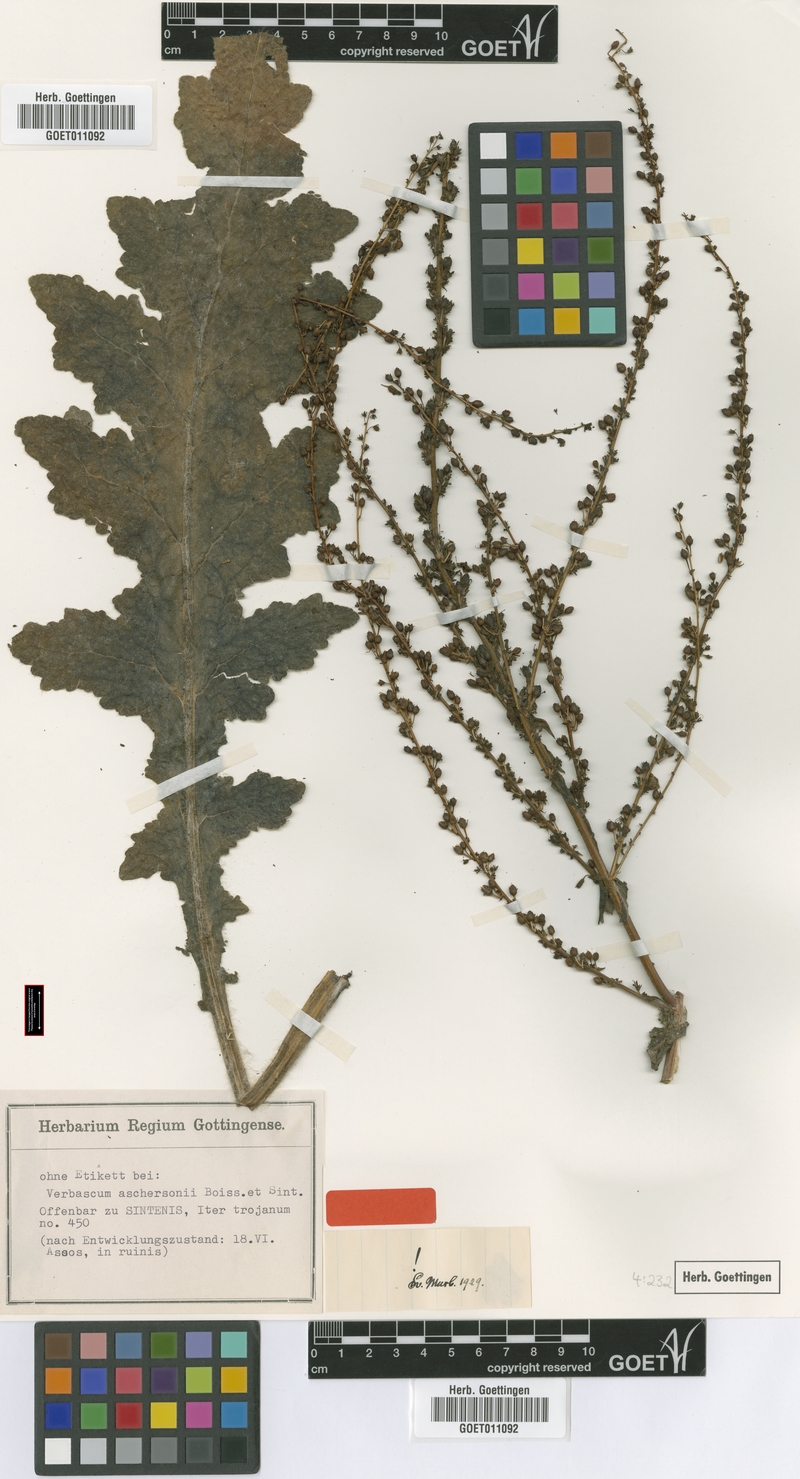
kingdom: Plantae
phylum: Tracheophyta
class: Magnoliopsida
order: Lamiales
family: Scrophulariaceae
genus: Verbascum
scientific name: Verbascum aschersonii
